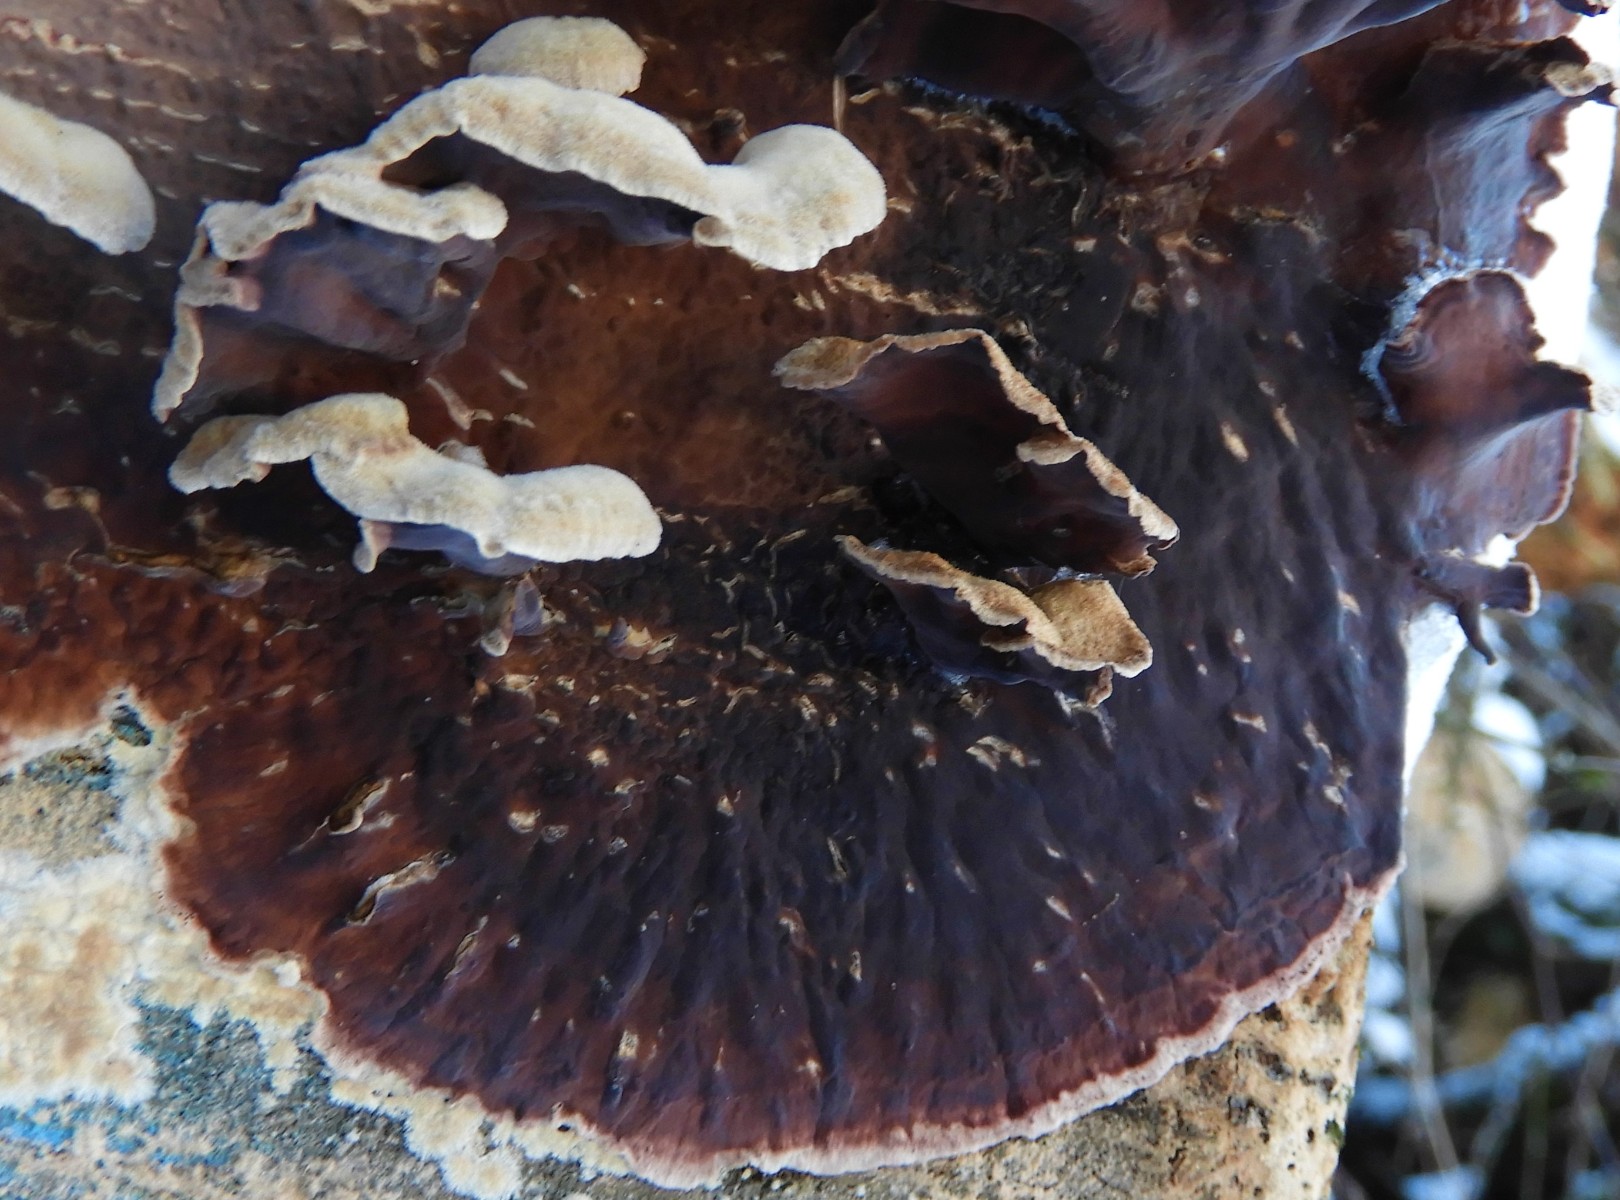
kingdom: Fungi
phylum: Basidiomycota
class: Agaricomycetes
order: Agaricales
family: Cyphellaceae
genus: Chondrostereum
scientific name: Chondrostereum purpureum
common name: purpurlædersvamp
